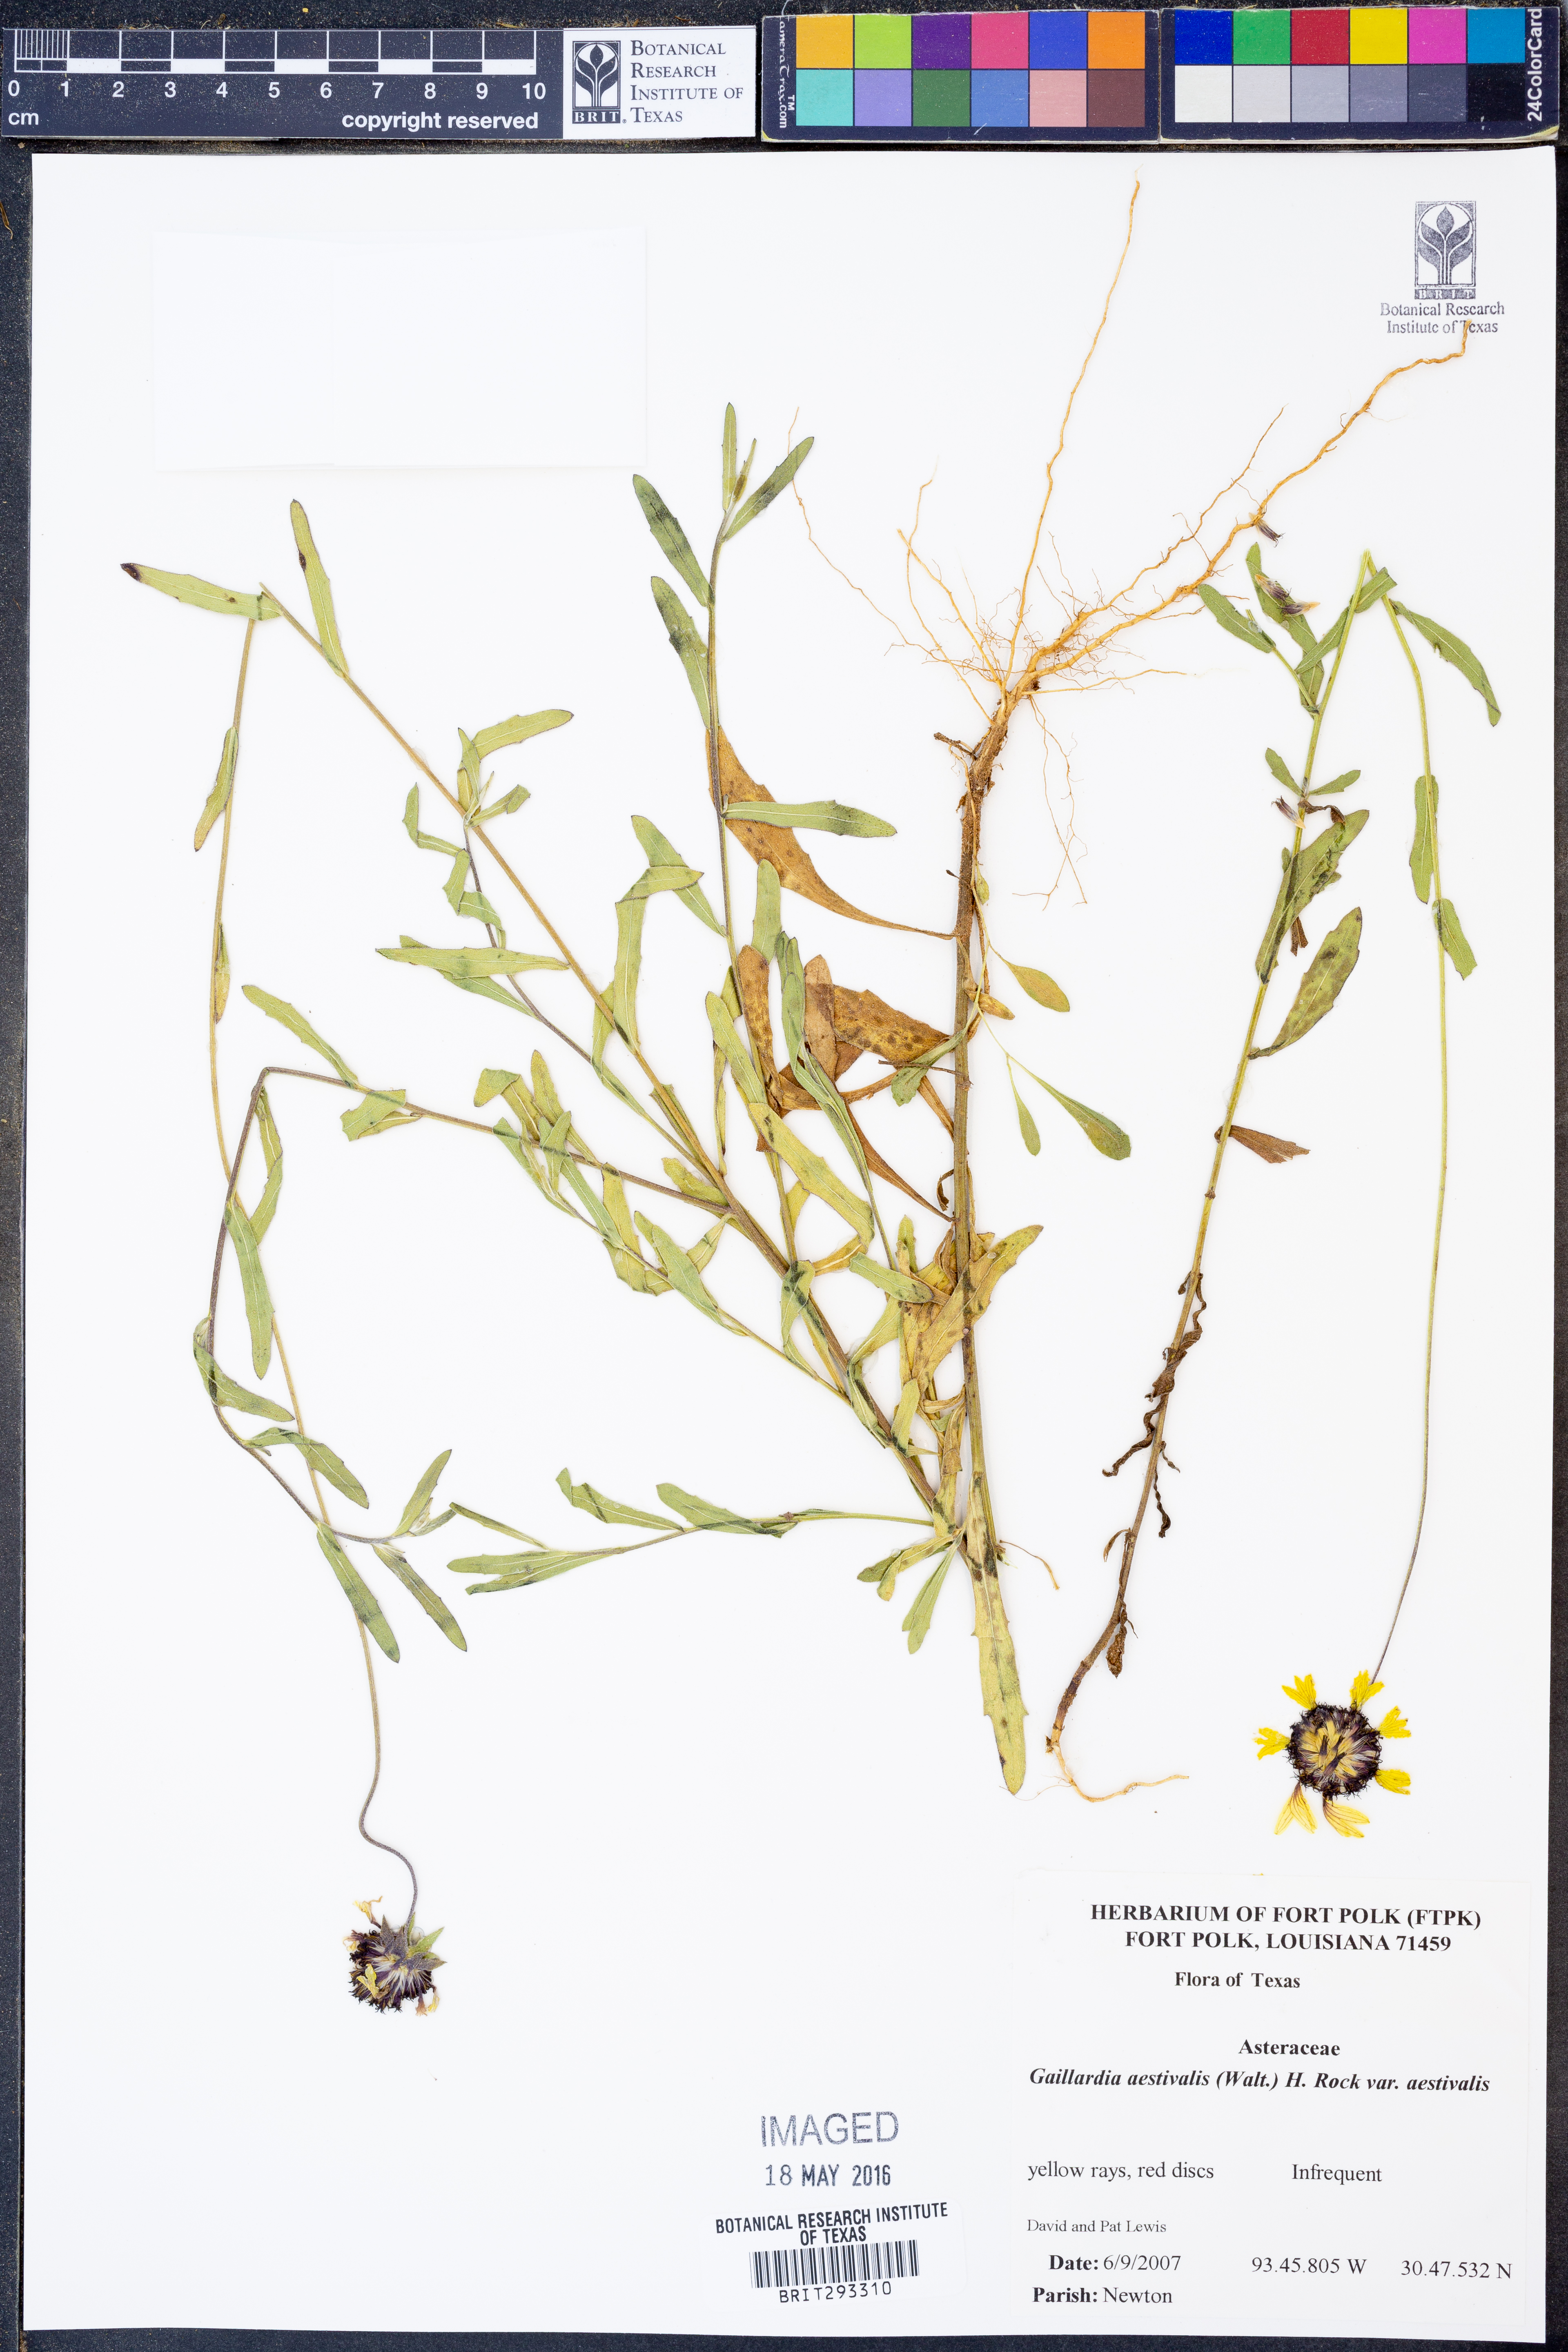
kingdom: Plantae
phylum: Tracheophyta
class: Magnoliopsida
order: Asterales
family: Asteraceae
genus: Gaillardia
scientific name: Gaillardia aestivalis
